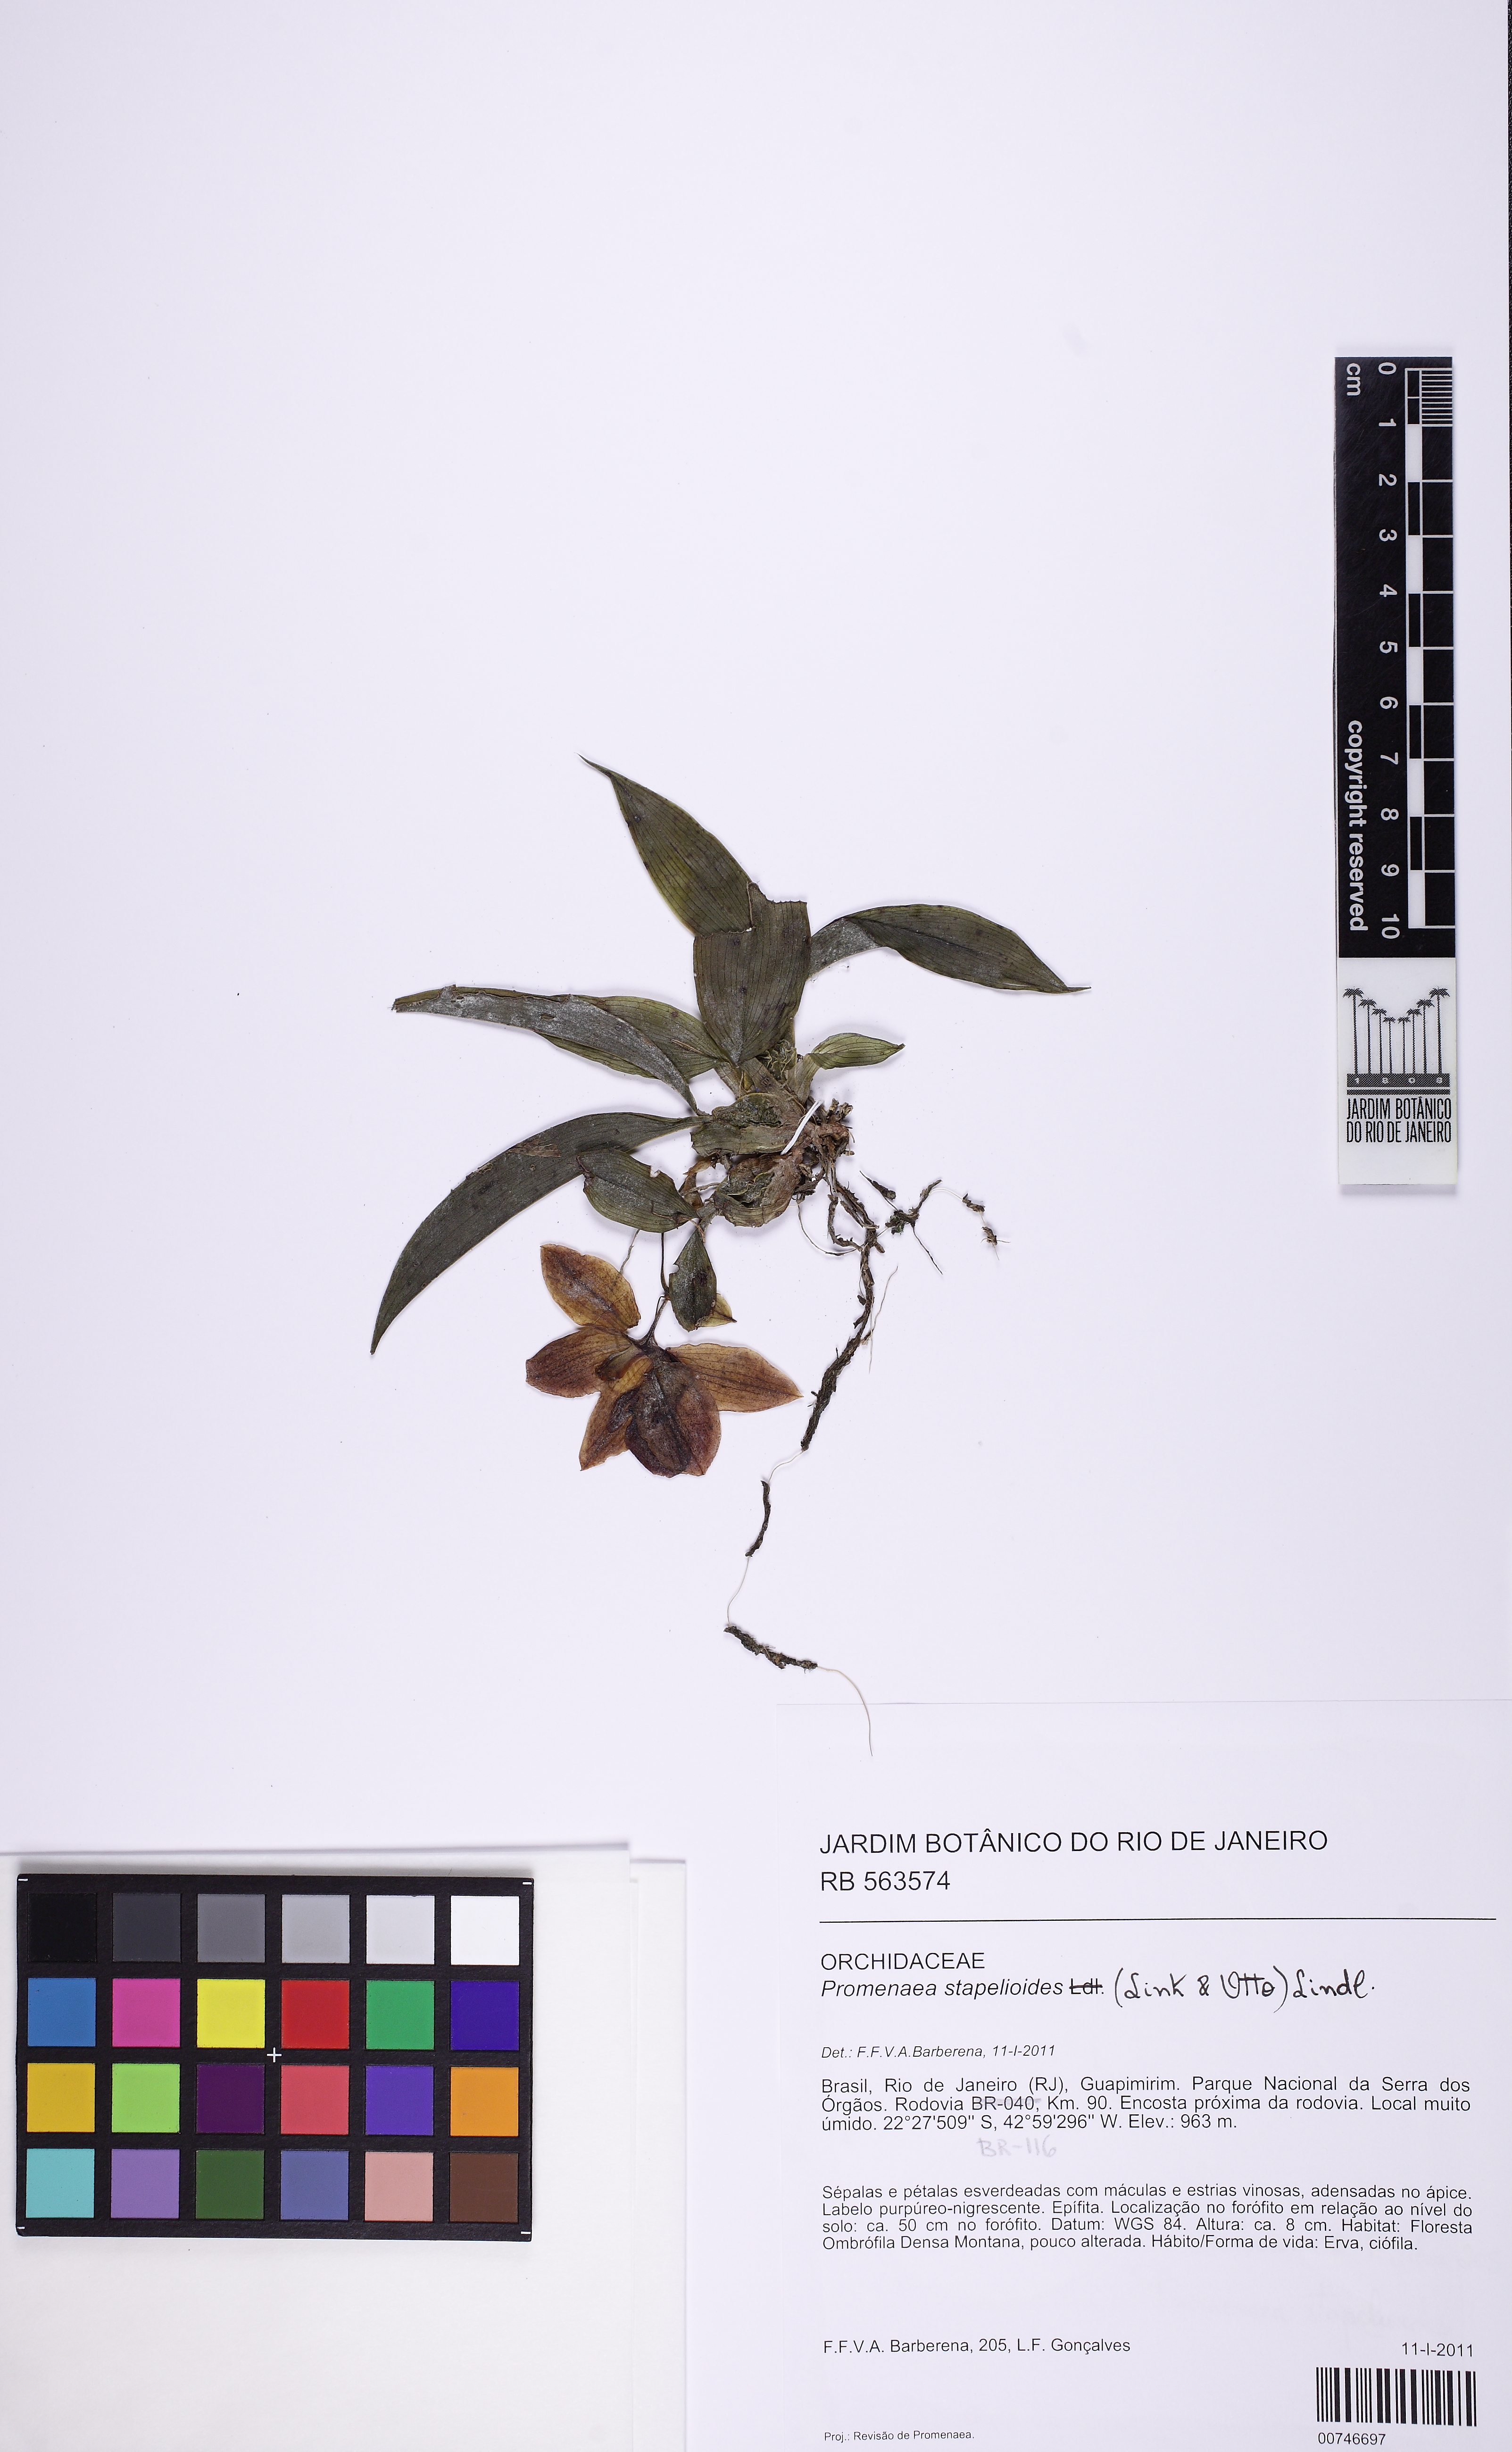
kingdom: Plantae
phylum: Tracheophyta
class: Liliopsida
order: Asparagales
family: Orchidaceae
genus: Promenaea
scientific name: Promenaea stapelioides
